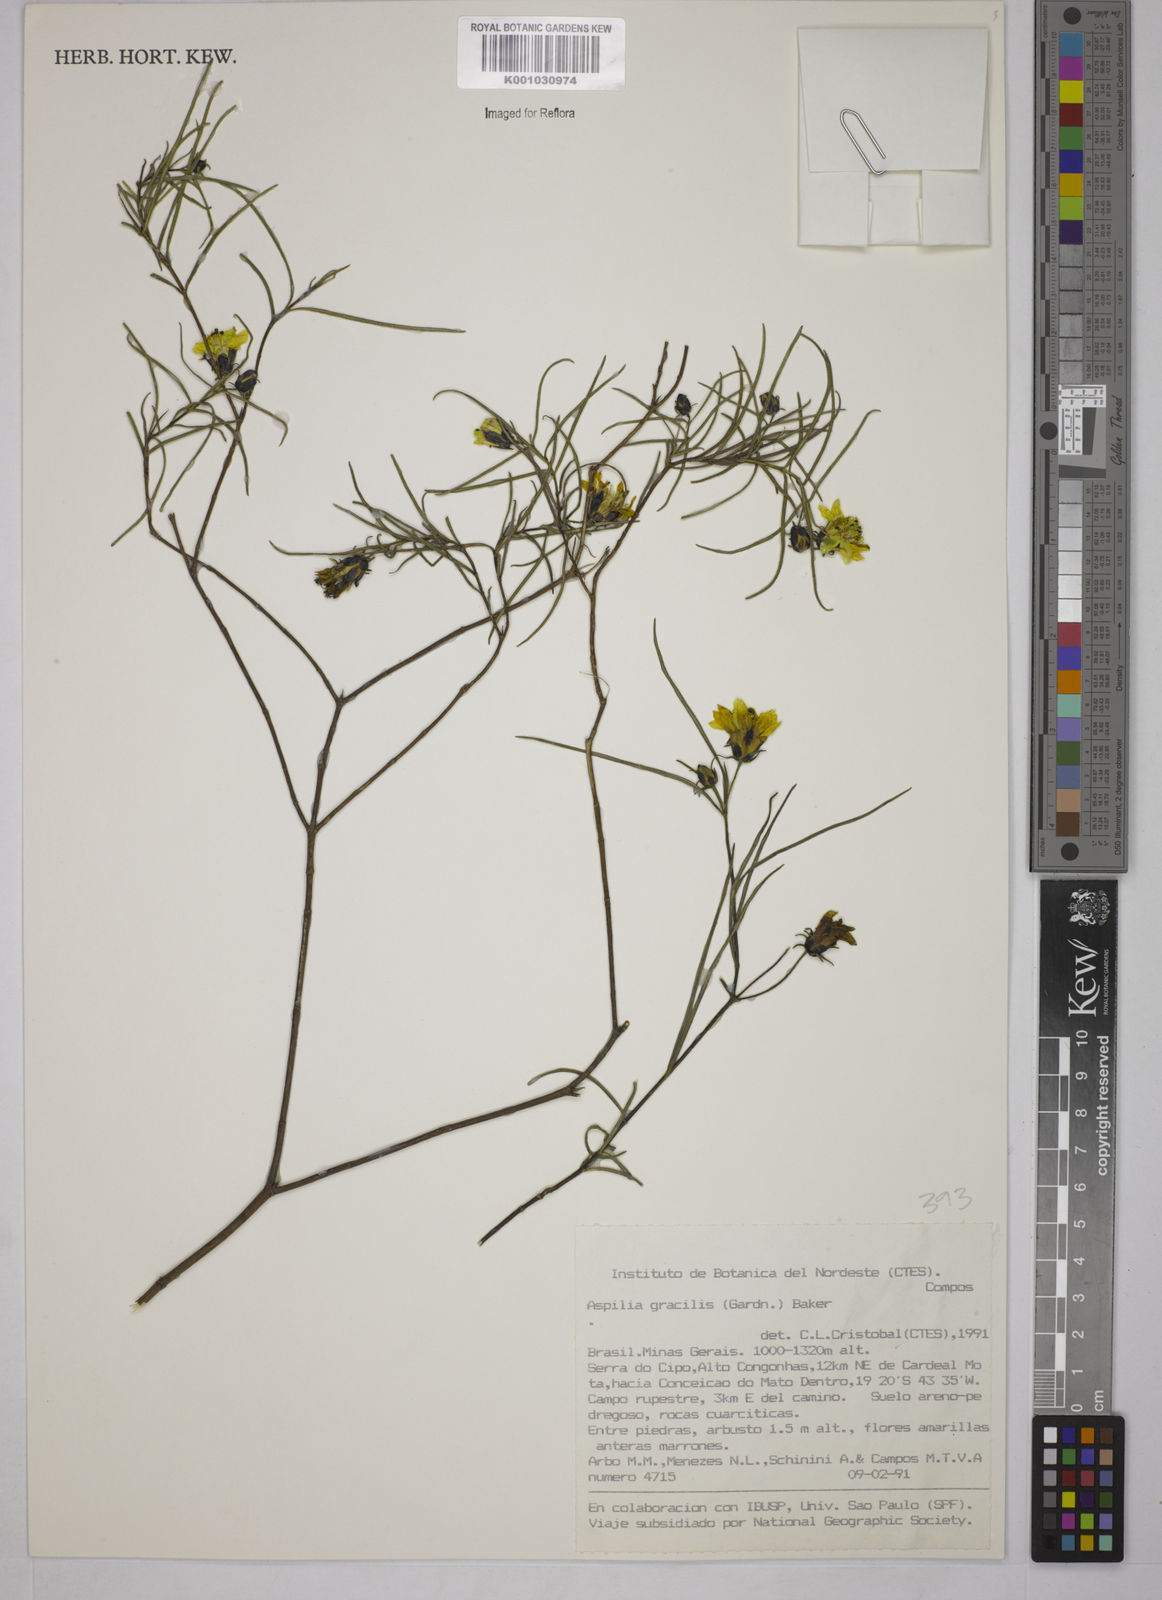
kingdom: Plantae
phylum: Tracheophyta
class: Magnoliopsida
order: Asterales
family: Asteraceae
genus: Wedelia
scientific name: Wedelia floribunda
